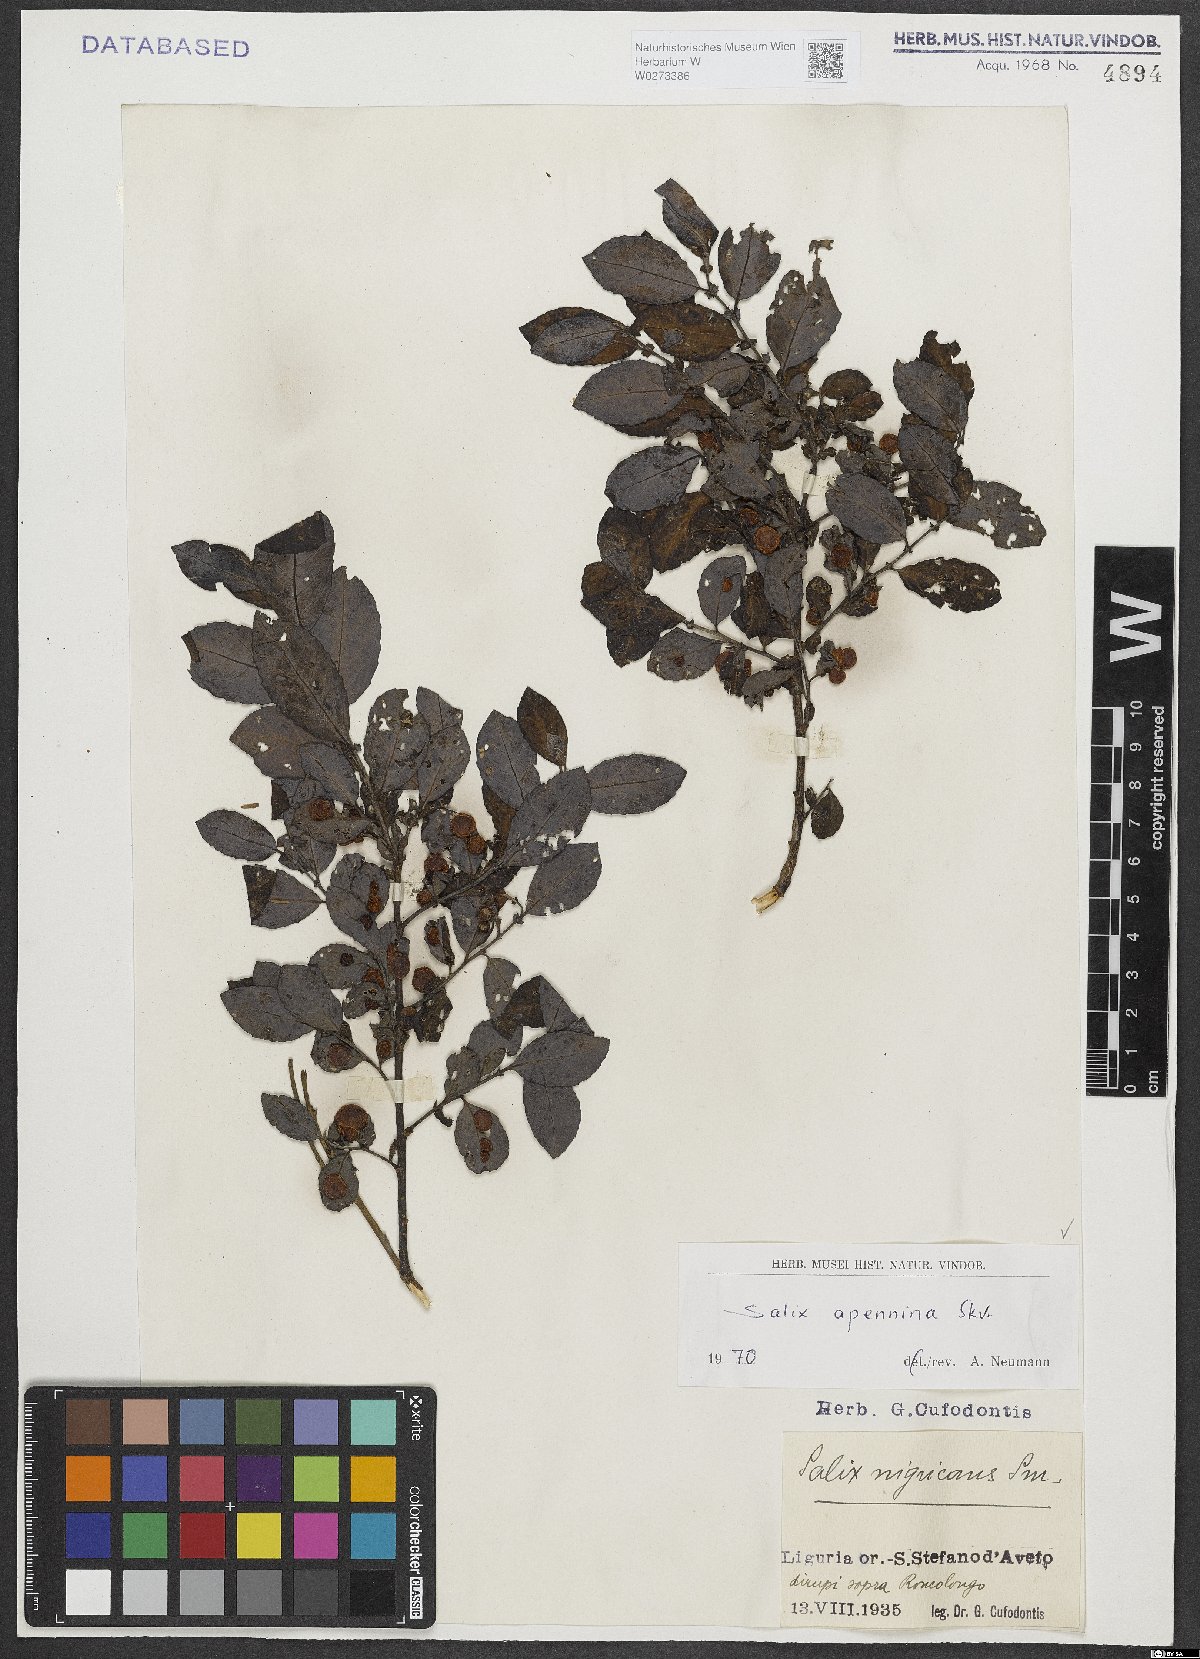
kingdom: Plantae
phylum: Tracheophyta
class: Magnoliopsida
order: Malpighiales
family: Salicaceae
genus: Salix
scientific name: Salix apennina
